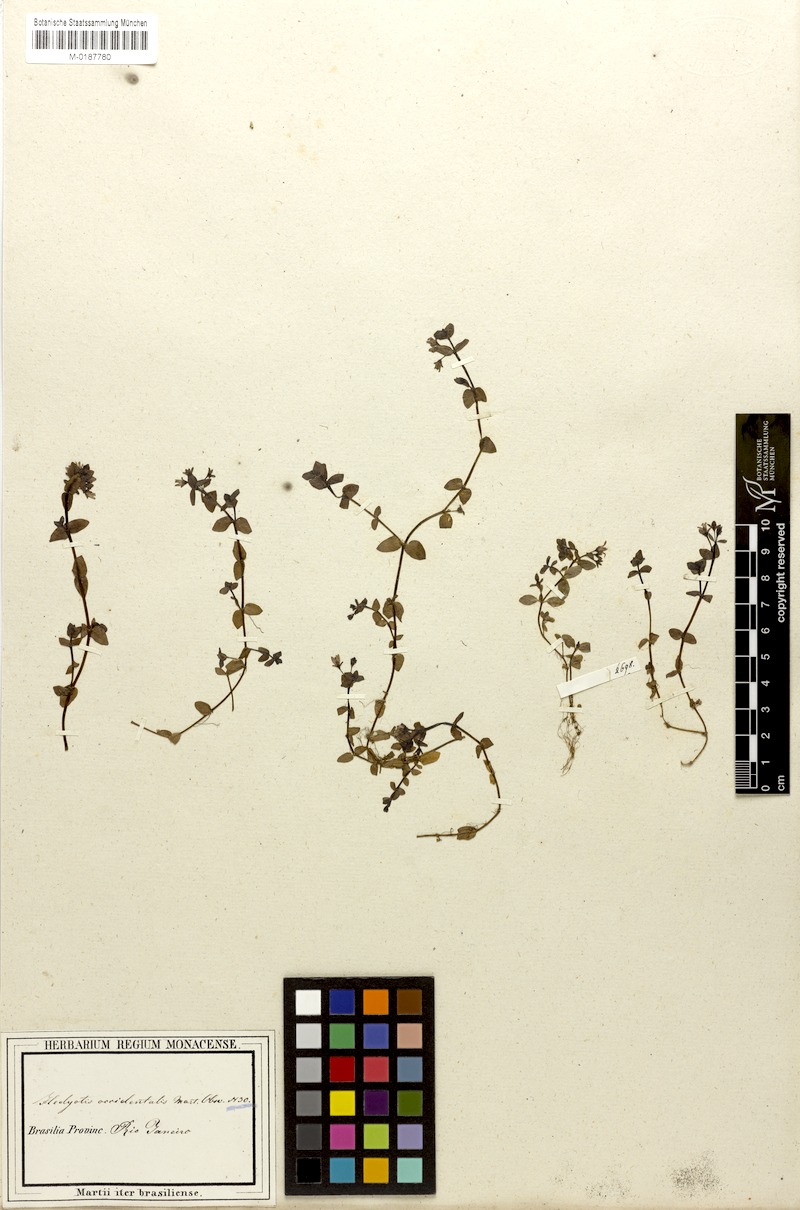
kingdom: Plantae
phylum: Tracheophyta
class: Magnoliopsida
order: Gentianales
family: Rubiaceae
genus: Houstonia
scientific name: Houstonia
